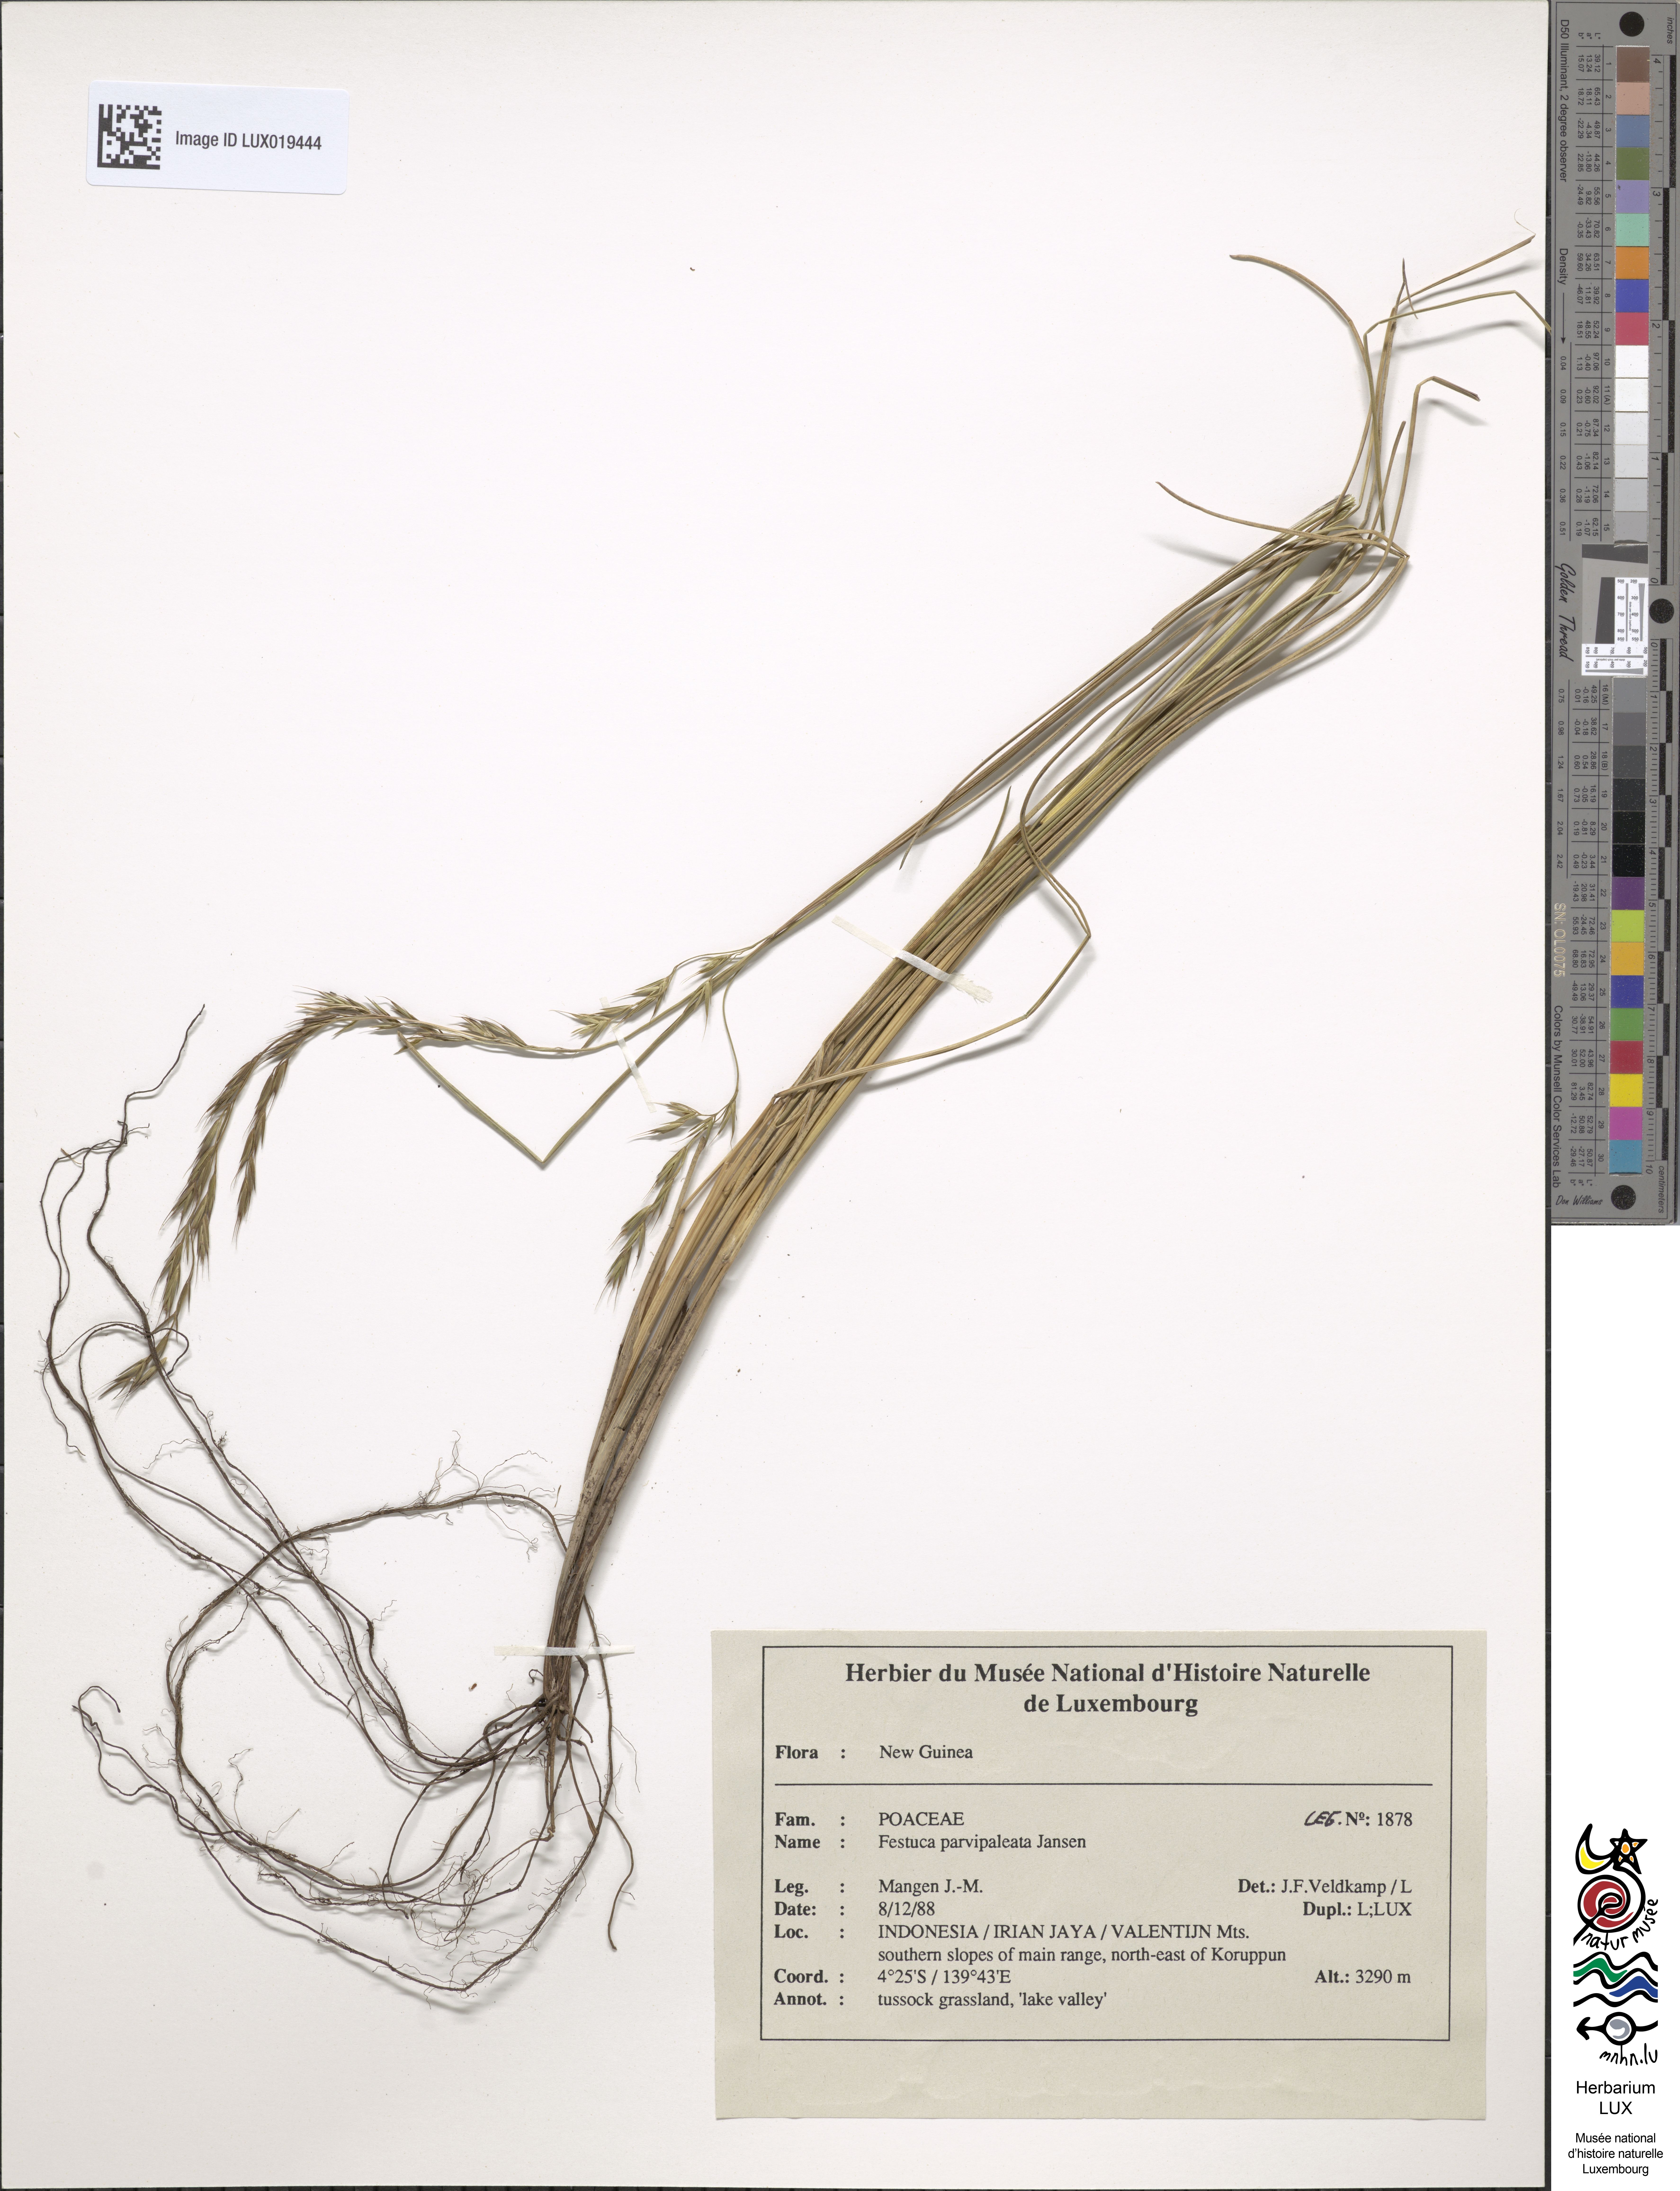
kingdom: Plantae
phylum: Tracheophyta
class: Liliopsida
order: Poales
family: Poaceae
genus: Festuca
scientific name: Festuca parvipaleata
